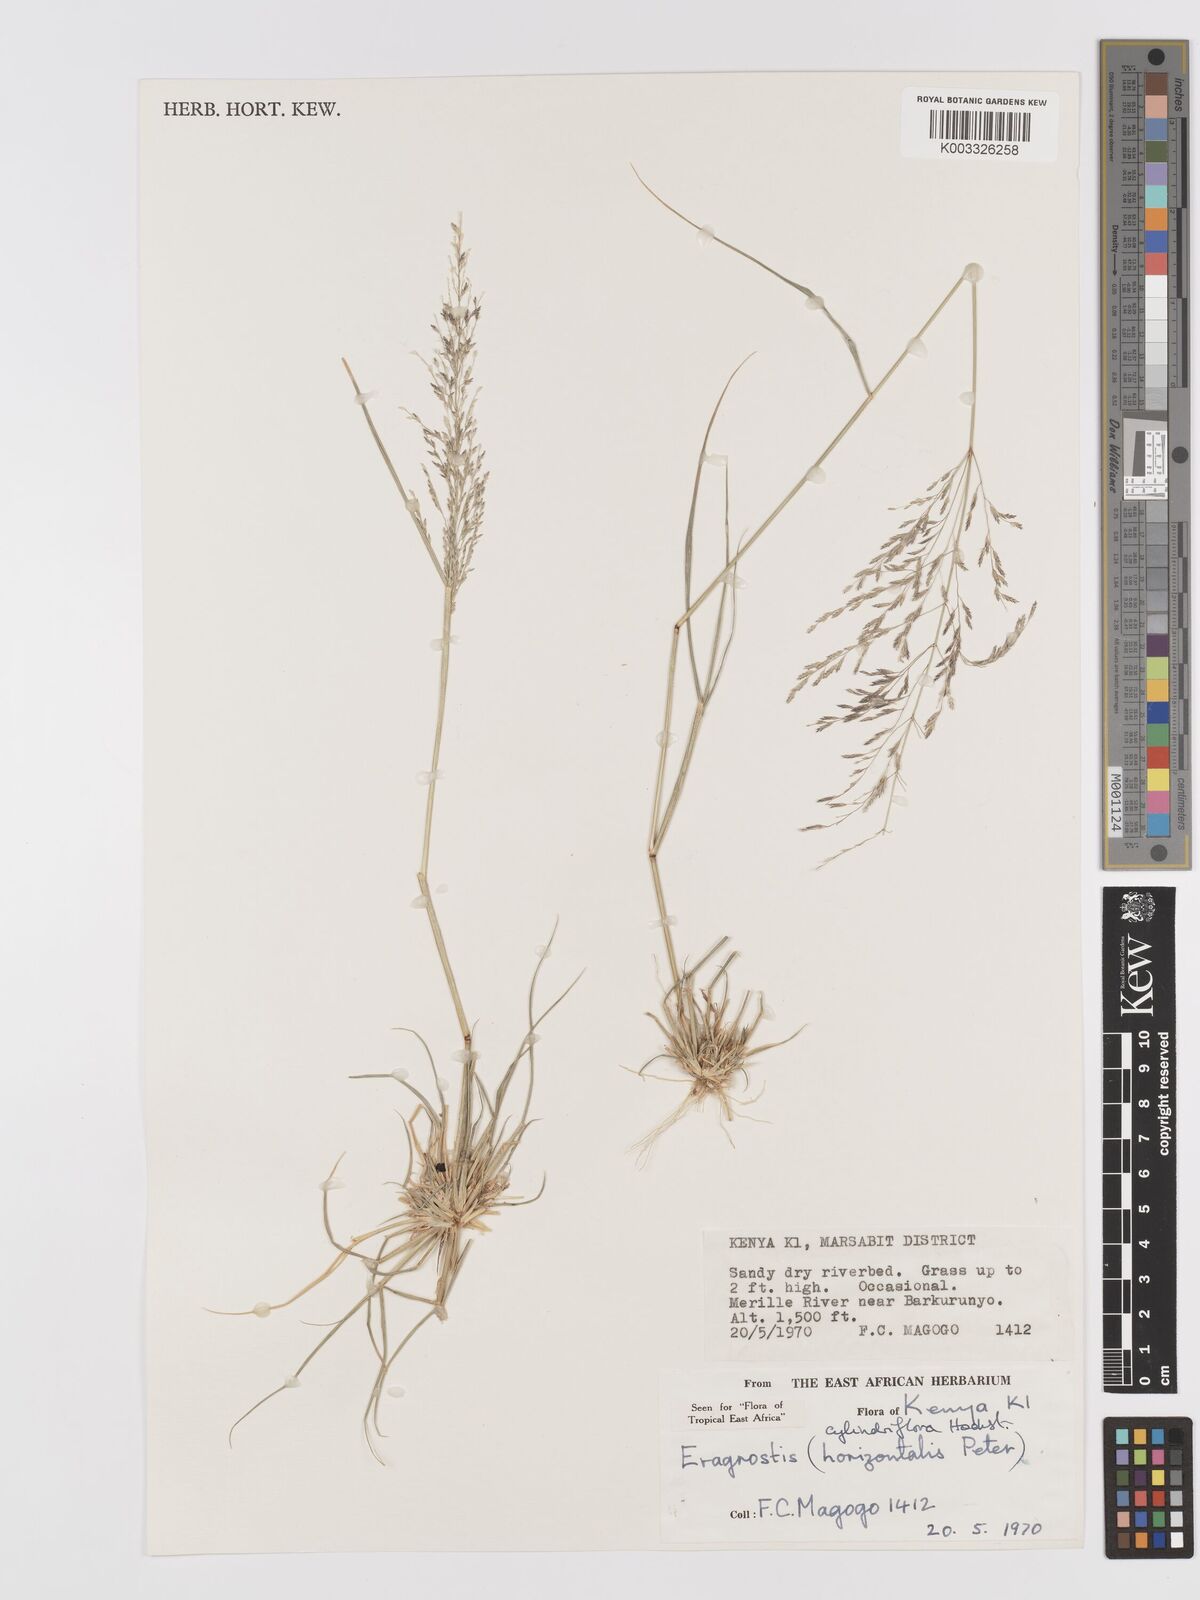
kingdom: Plantae
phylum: Tracheophyta
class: Liliopsida
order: Poales
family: Poaceae
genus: Eragrostis
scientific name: Eragrostis cylindriflora
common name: Cylinderflower lovegrass
